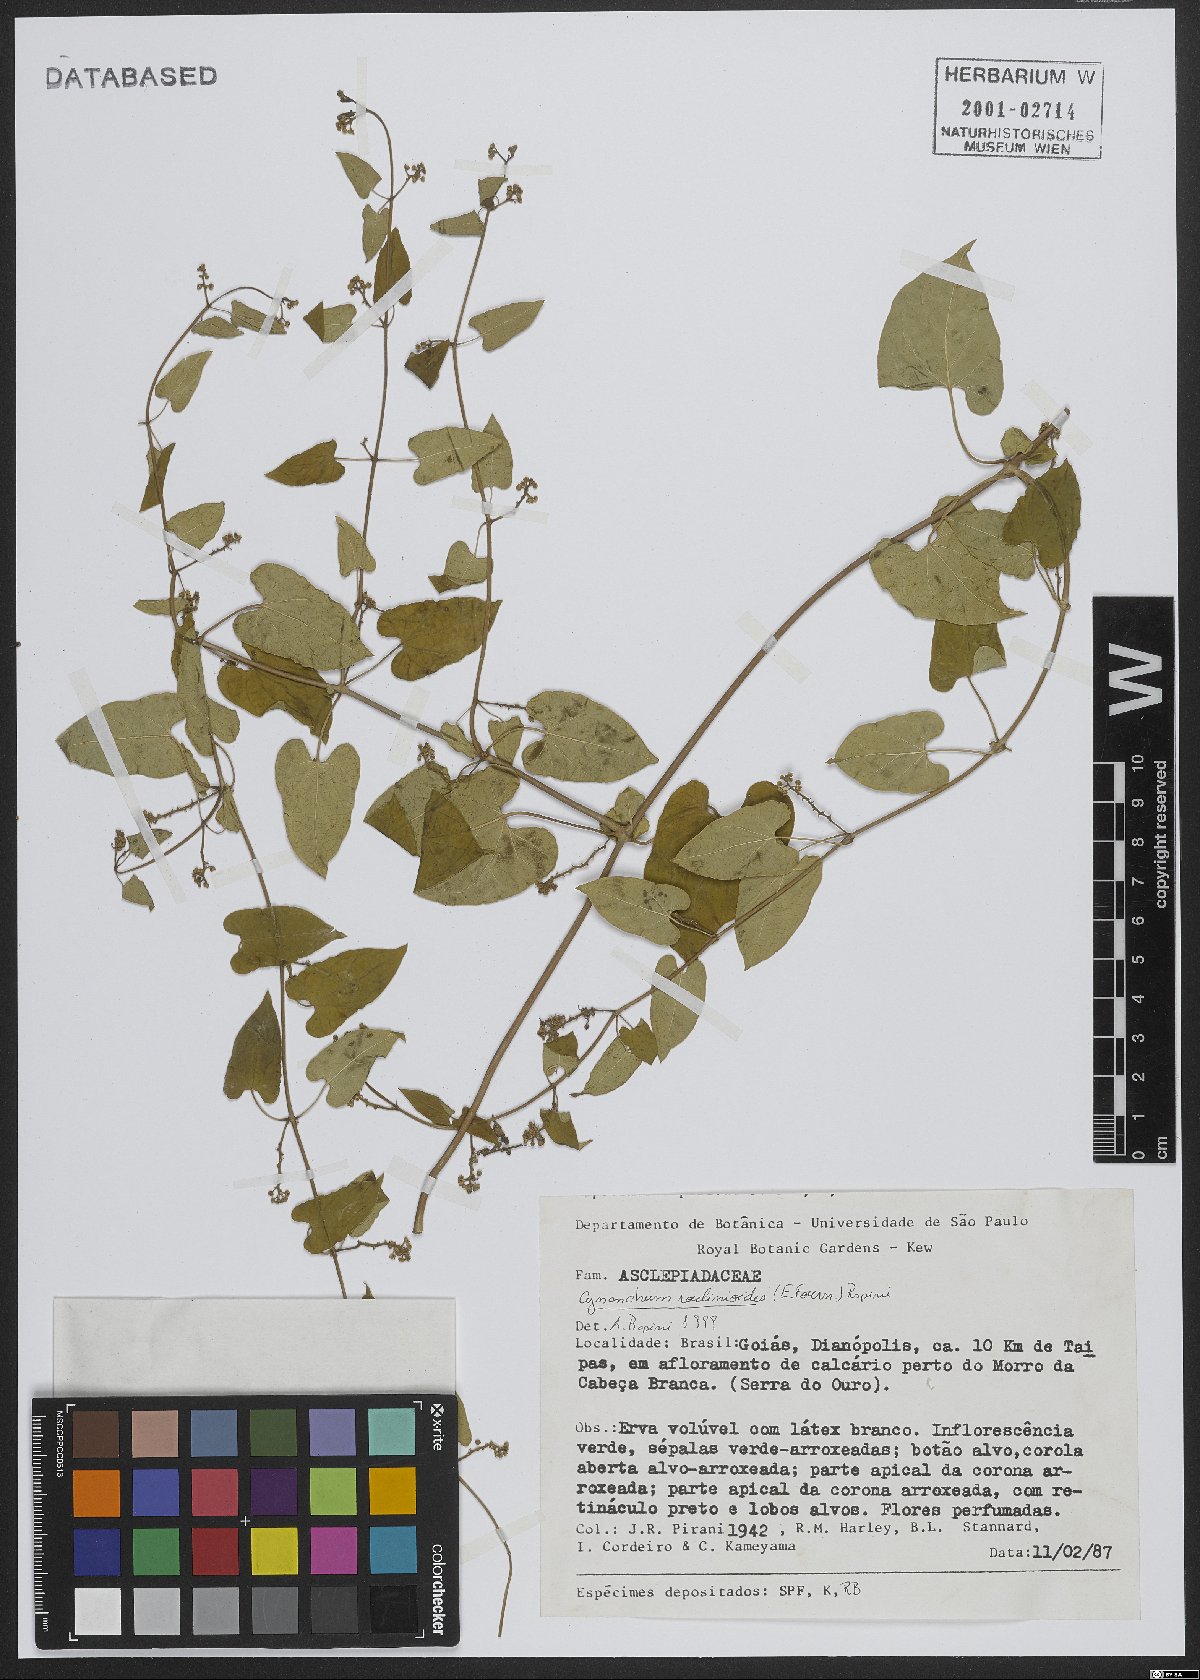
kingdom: Plantae
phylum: Tracheophyta
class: Magnoliopsida
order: Gentianales
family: Apocynaceae
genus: Cynanchum
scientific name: Cynanchum roulinioides
